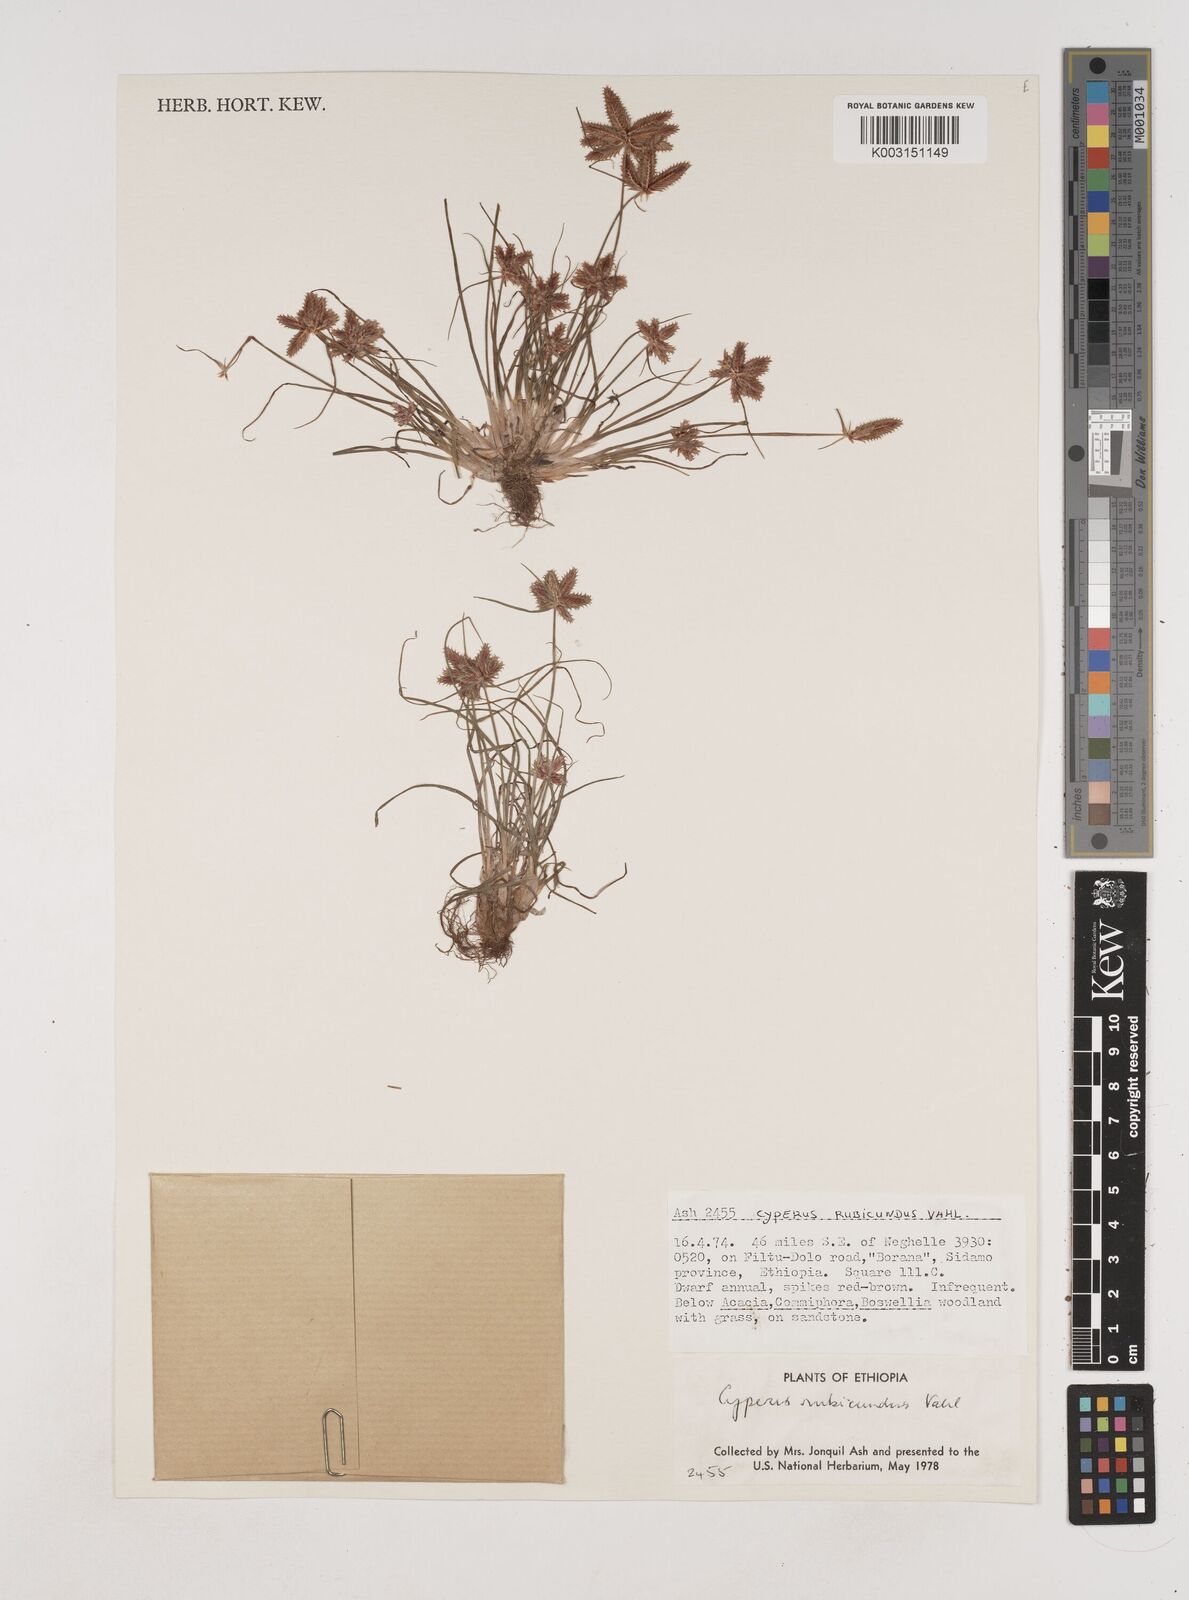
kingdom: Plantae
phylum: Tracheophyta
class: Liliopsida
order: Poales
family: Cyperaceae
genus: Cyperus
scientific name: Cyperus rubicundus
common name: Coco-grass
